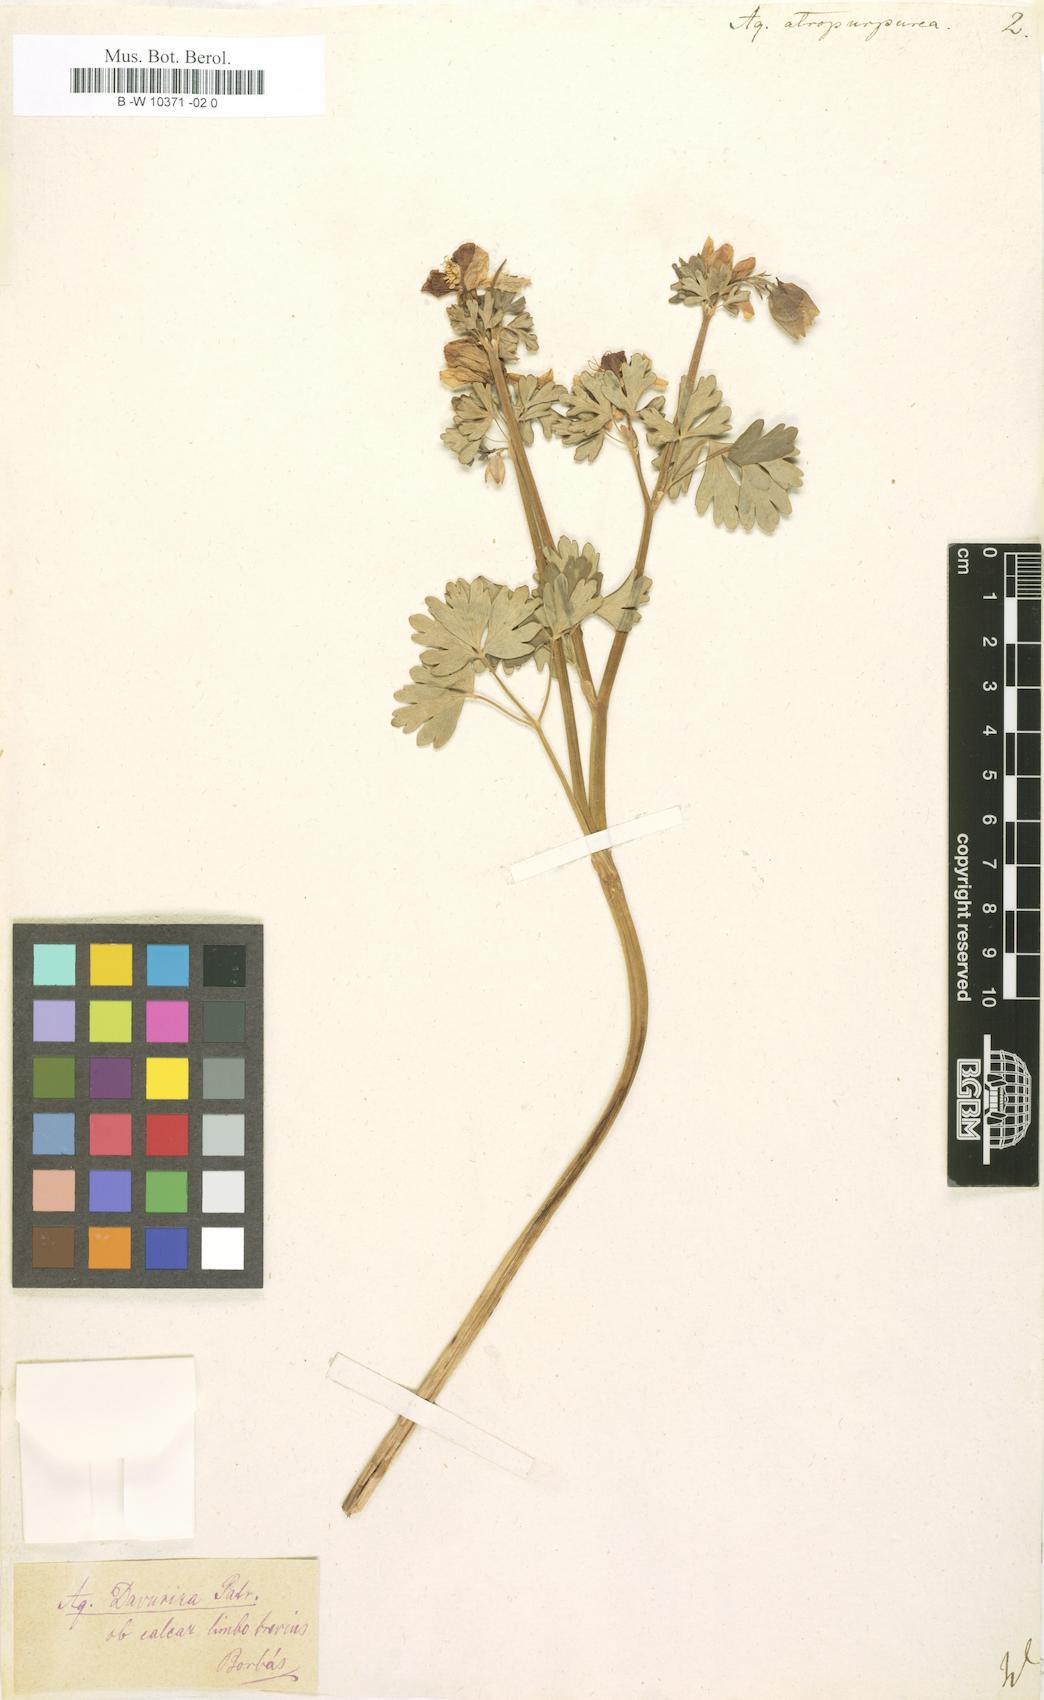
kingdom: Plantae
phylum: Tracheophyta
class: Magnoliopsida
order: Ranunculales
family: Ranunculaceae
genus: Aquilegia
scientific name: Aquilegia
